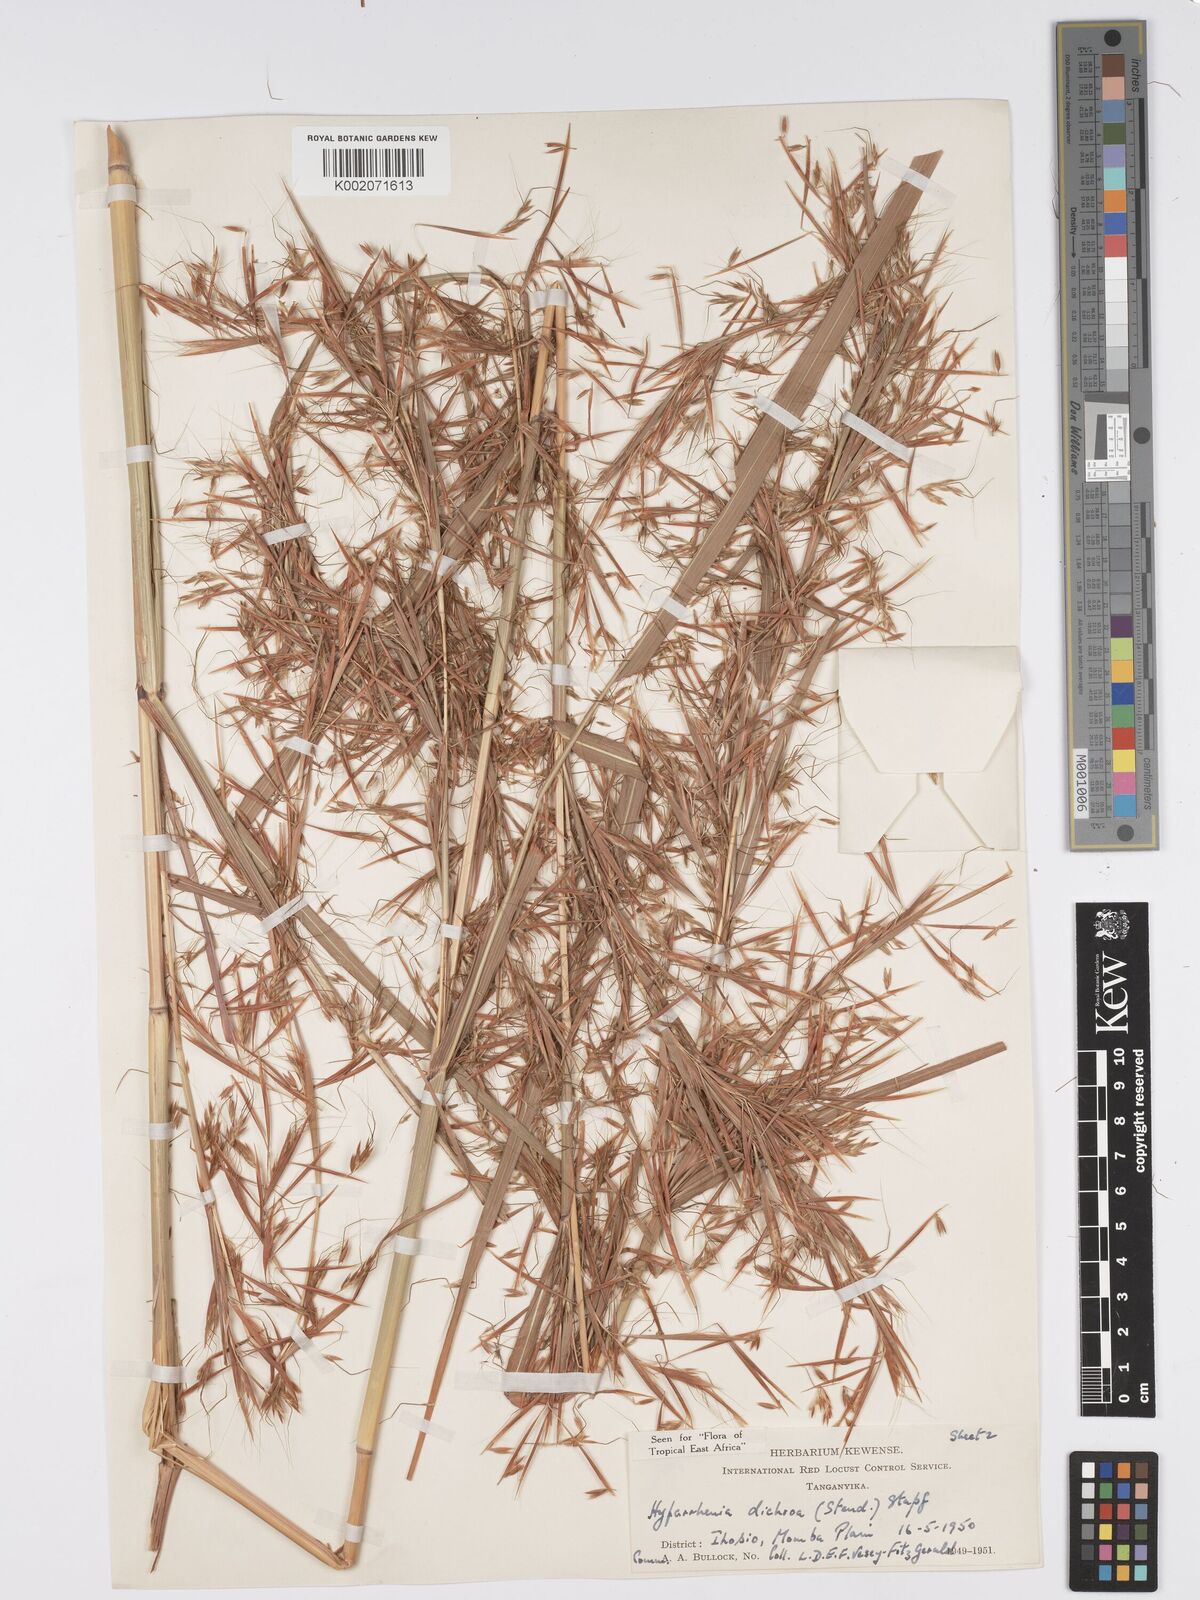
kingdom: Plantae
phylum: Tracheophyta
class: Liliopsida
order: Poales
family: Poaceae
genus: Hyparrhenia
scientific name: Hyparrhenia dichroa
